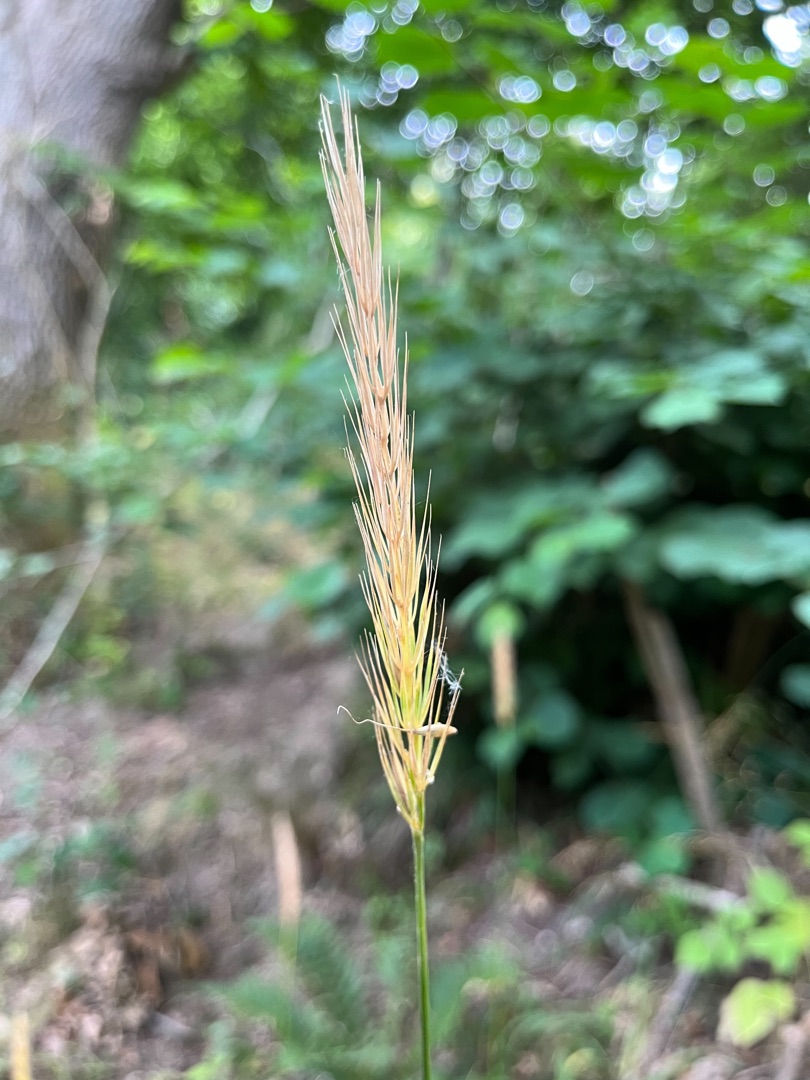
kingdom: Plantae
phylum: Tracheophyta
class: Liliopsida
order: Poales
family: Poaceae
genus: Hordelymus
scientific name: Hordelymus europaeus
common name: Skovbyg
